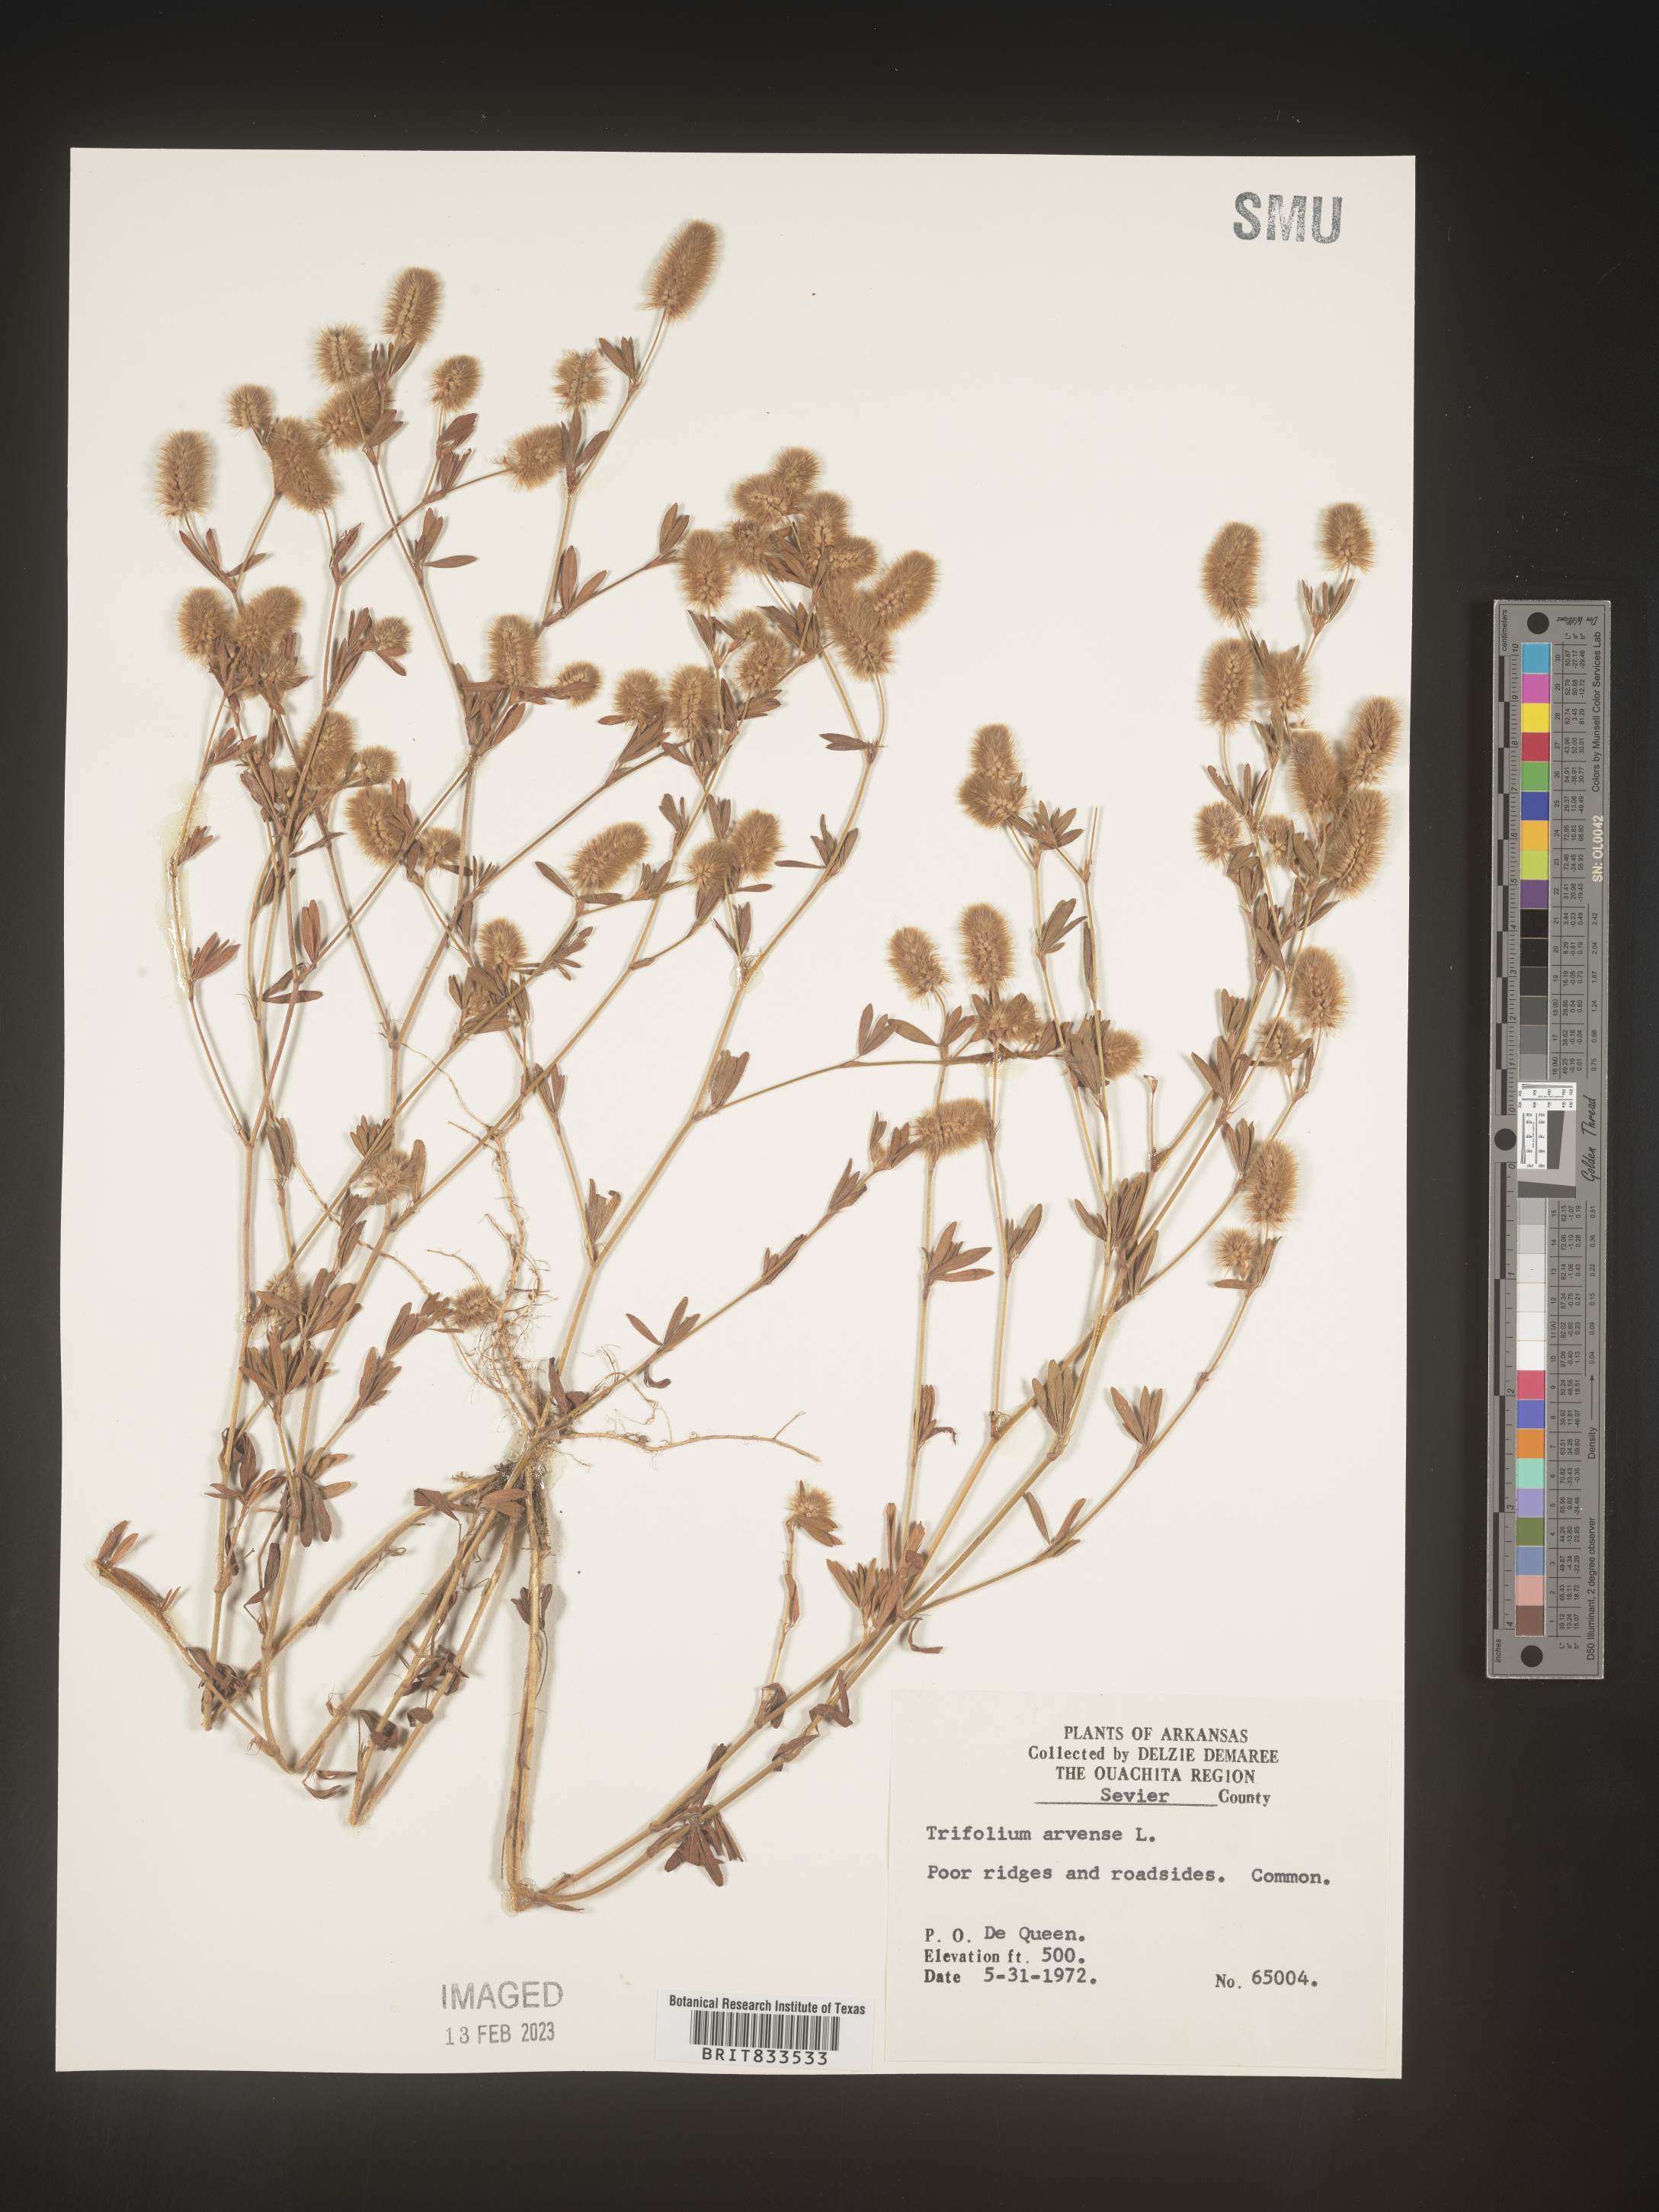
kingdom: Plantae
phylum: Tracheophyta
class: Magnoliopsida
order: Fabales
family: Fabaceae
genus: Trifolium
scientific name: Trifolium arvense
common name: Hare's-foot clover
